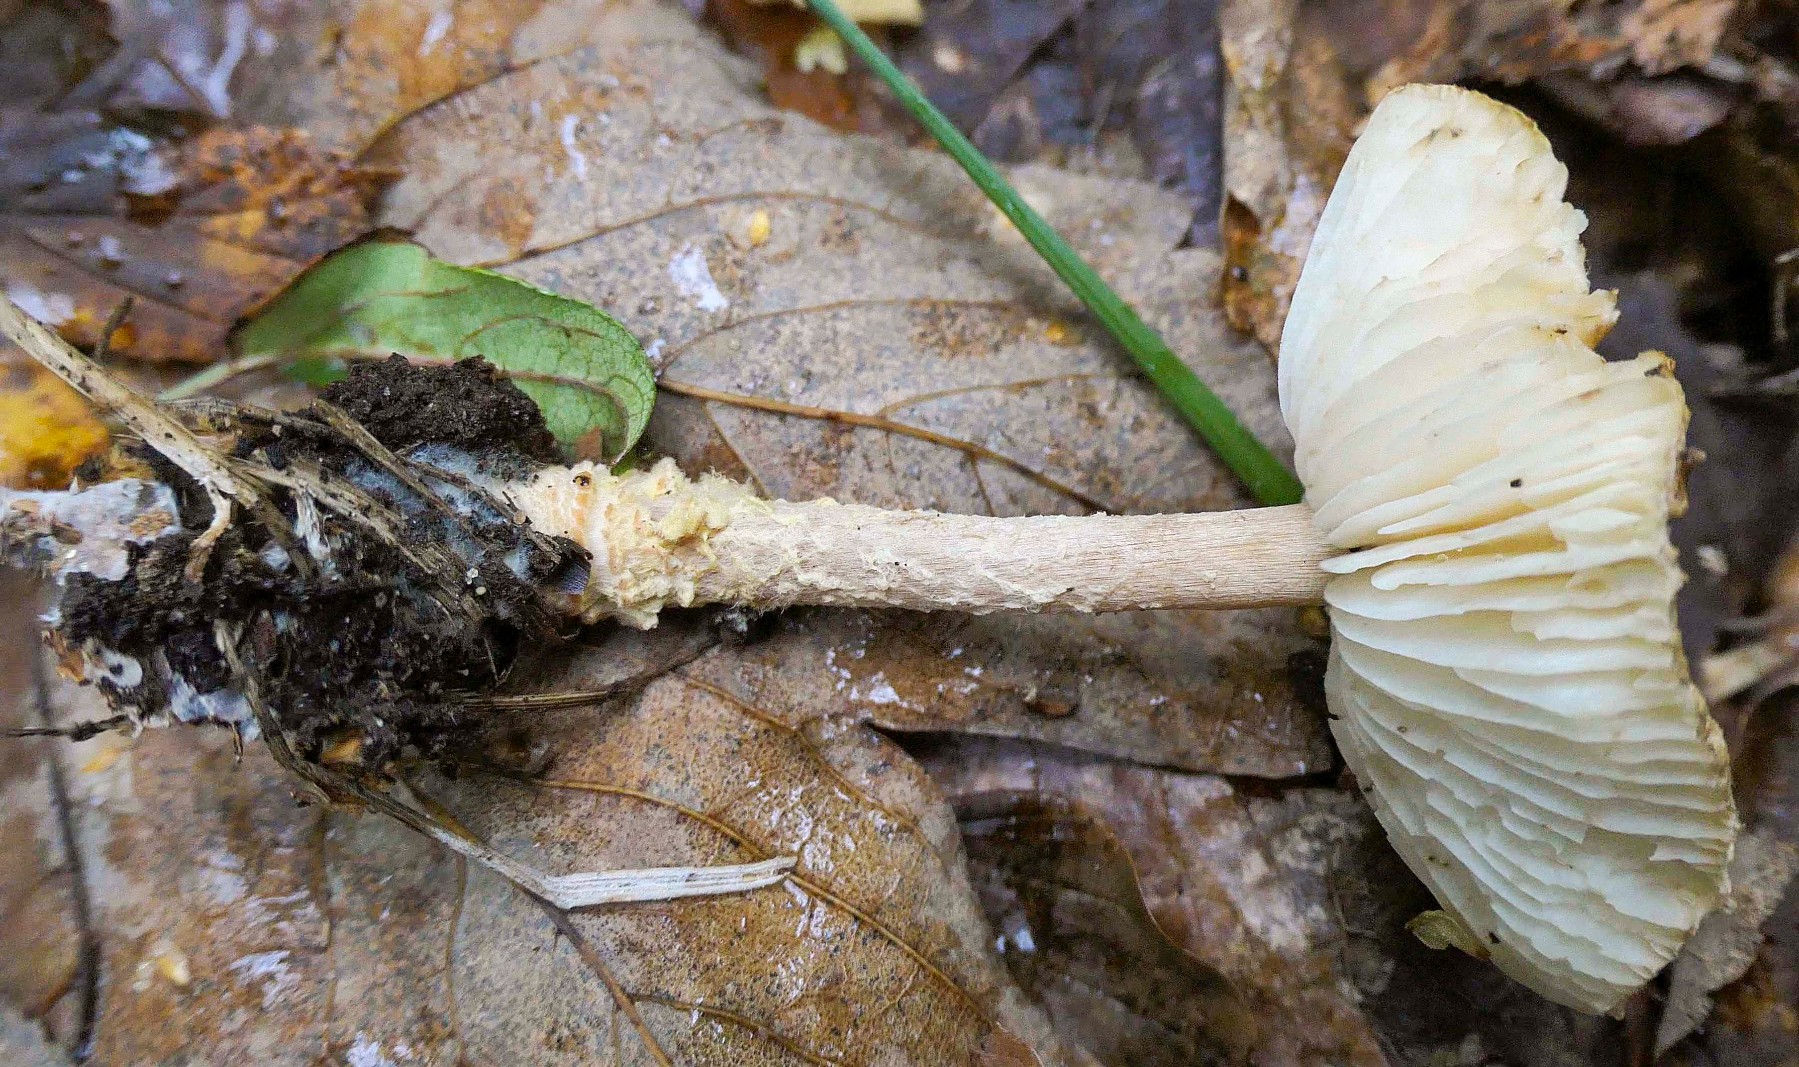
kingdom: Fungi
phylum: Basidiomycota
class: Agaricomycetes
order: Agaricales
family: Agaricaceae
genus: Lepiota
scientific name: Lepiota magnispora
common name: gulfnugget parasolhat
